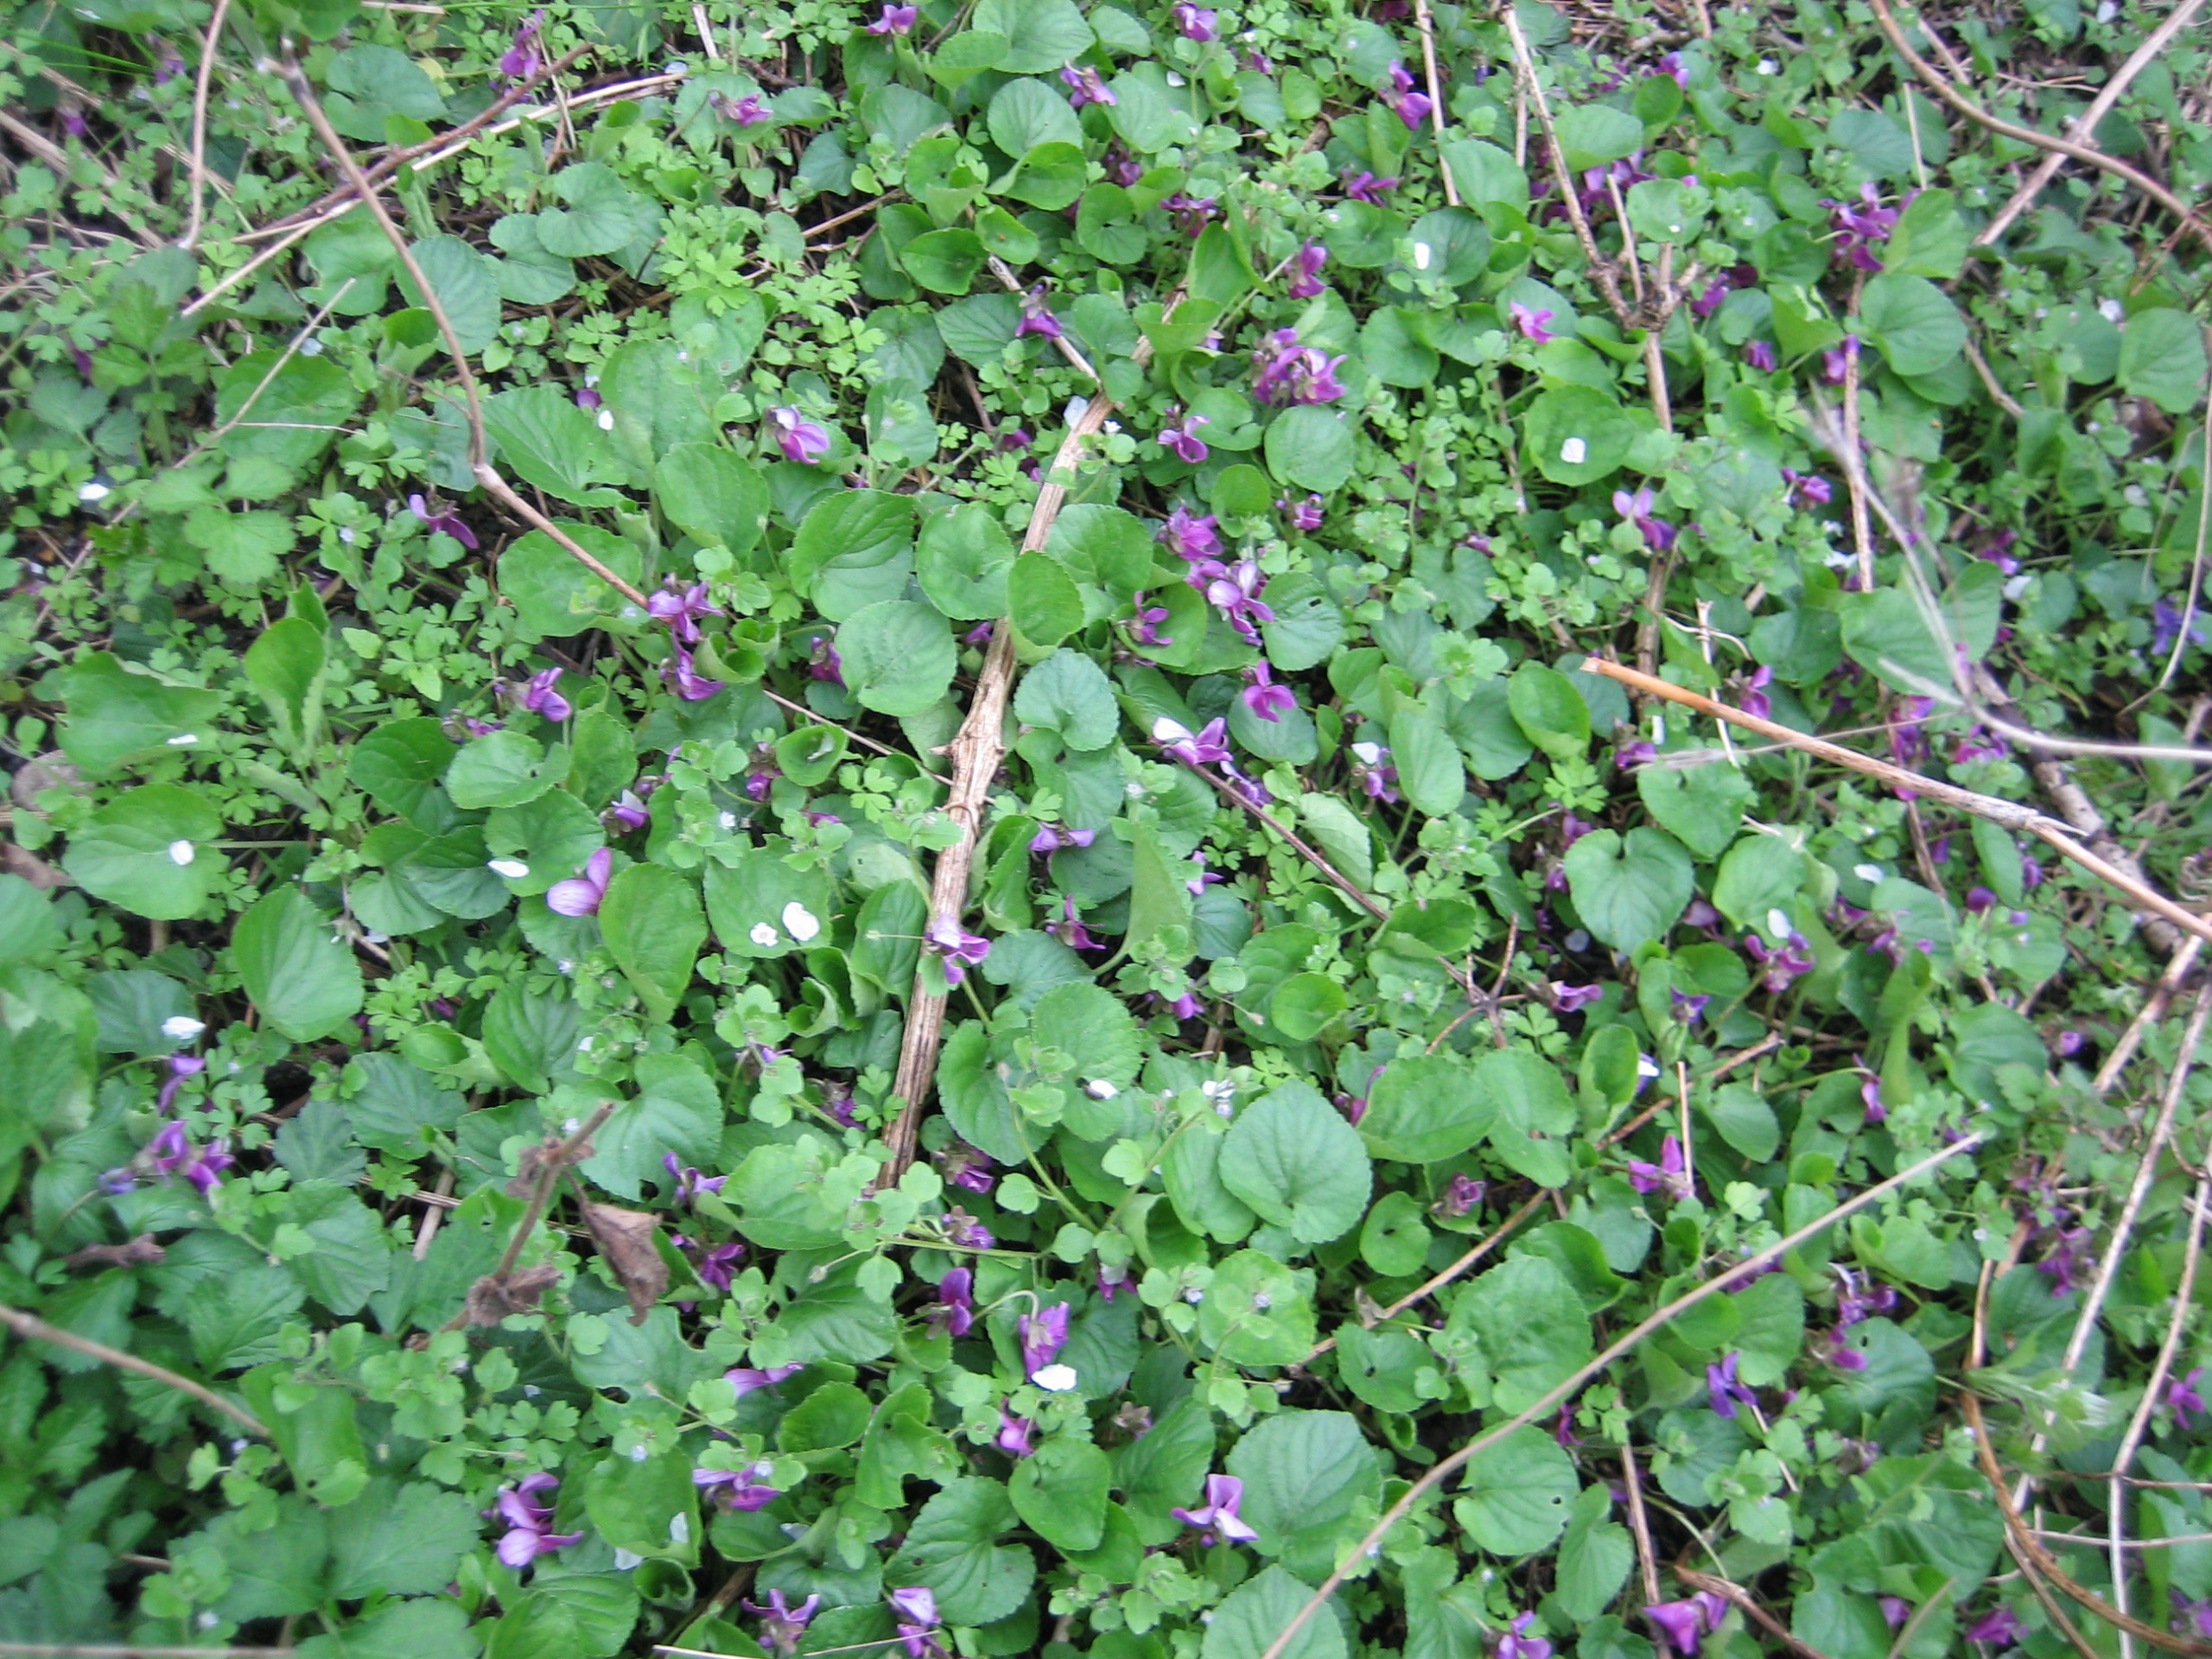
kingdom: Plantae
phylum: Tracheophyta
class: Magnoliopsida
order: Malpighiales
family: Violaceae
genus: Viola
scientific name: Viola odorata
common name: Marts-viol
